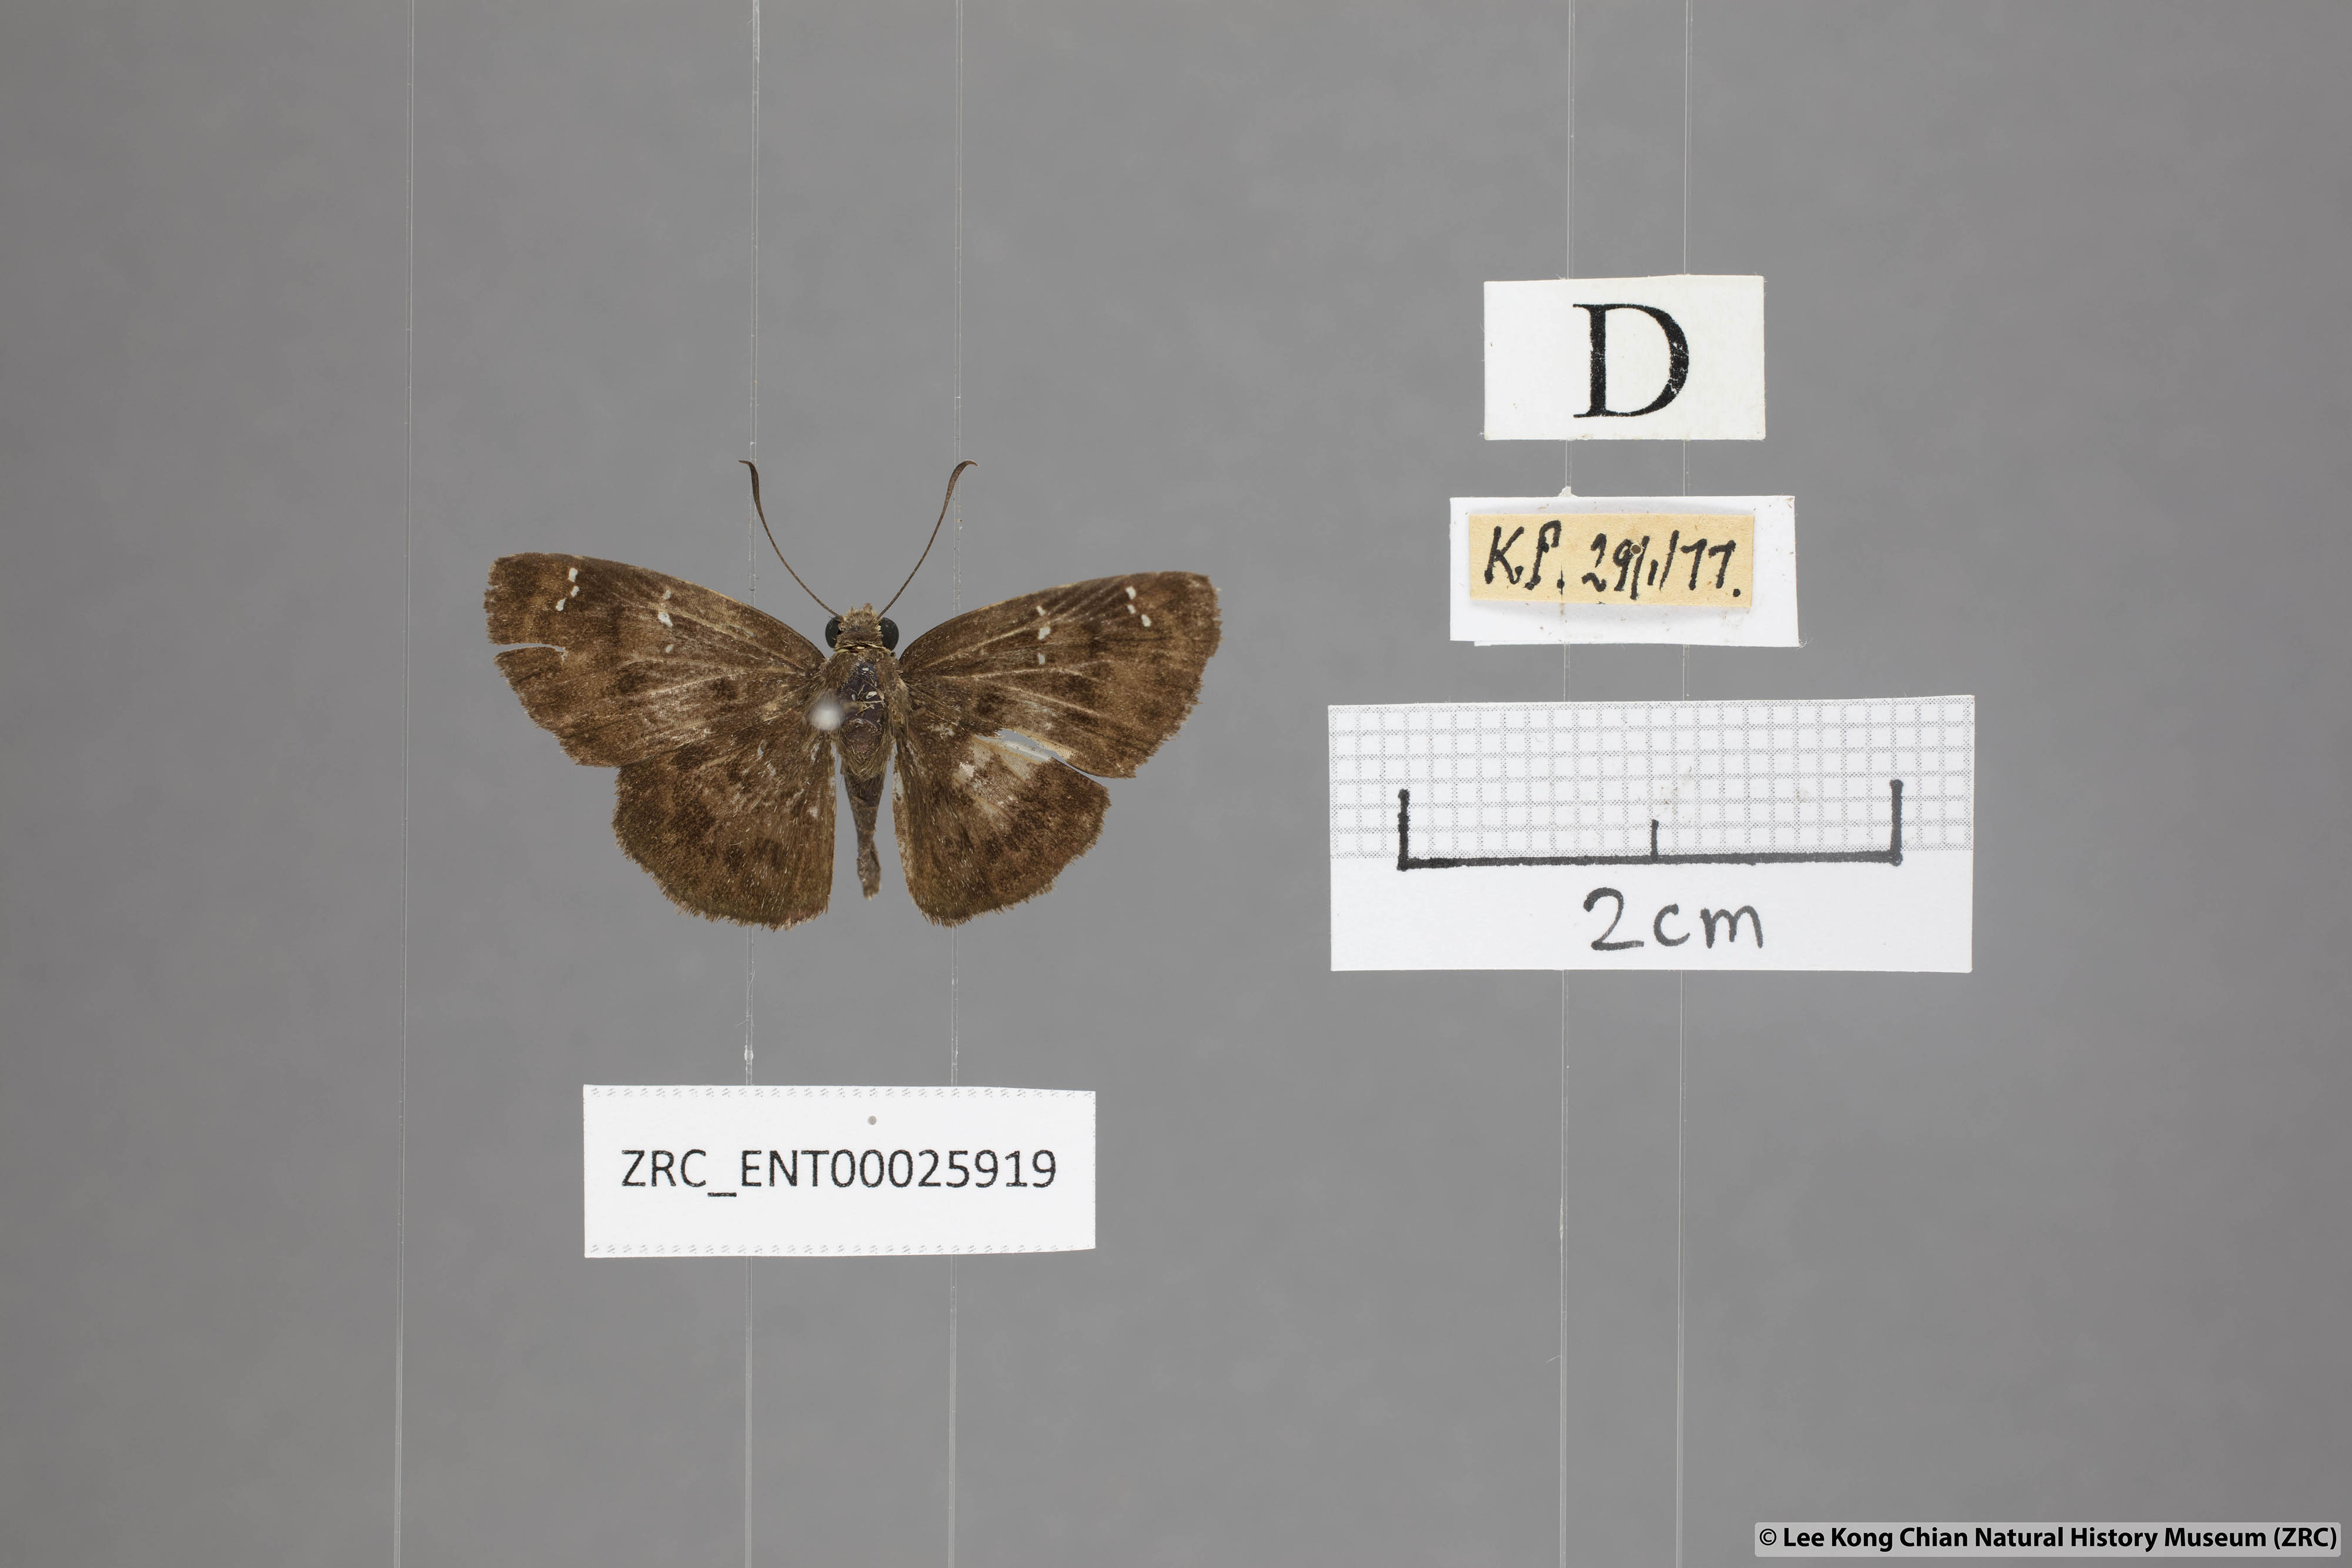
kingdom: Animalia
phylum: Arthropoda
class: Insecta
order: Lepidoptera
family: Hesperiidae
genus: Sarangesa
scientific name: Sarangesa dasahara
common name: Common small flat
